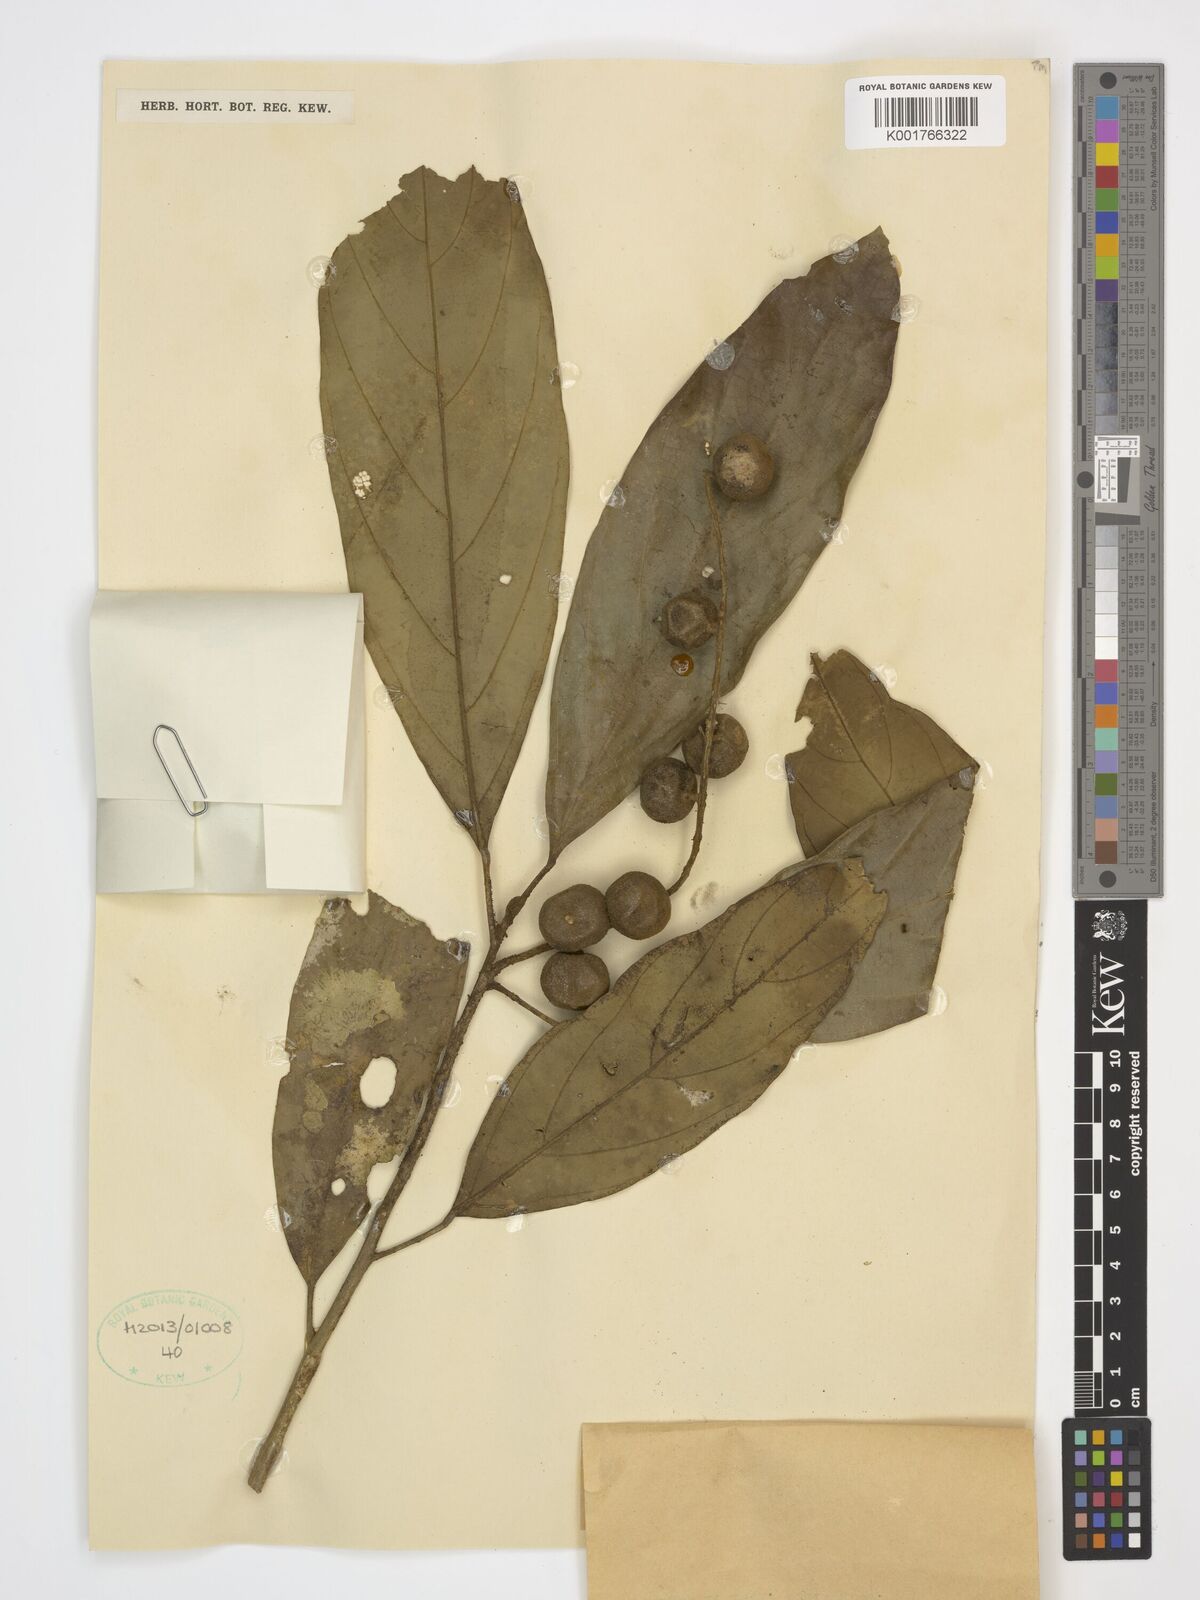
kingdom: Plantae
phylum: Tracheophyta
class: Magnoliopsida
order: Malpighiales
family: Achariaceae
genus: Ryparosa
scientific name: Ryparosa acuminata
